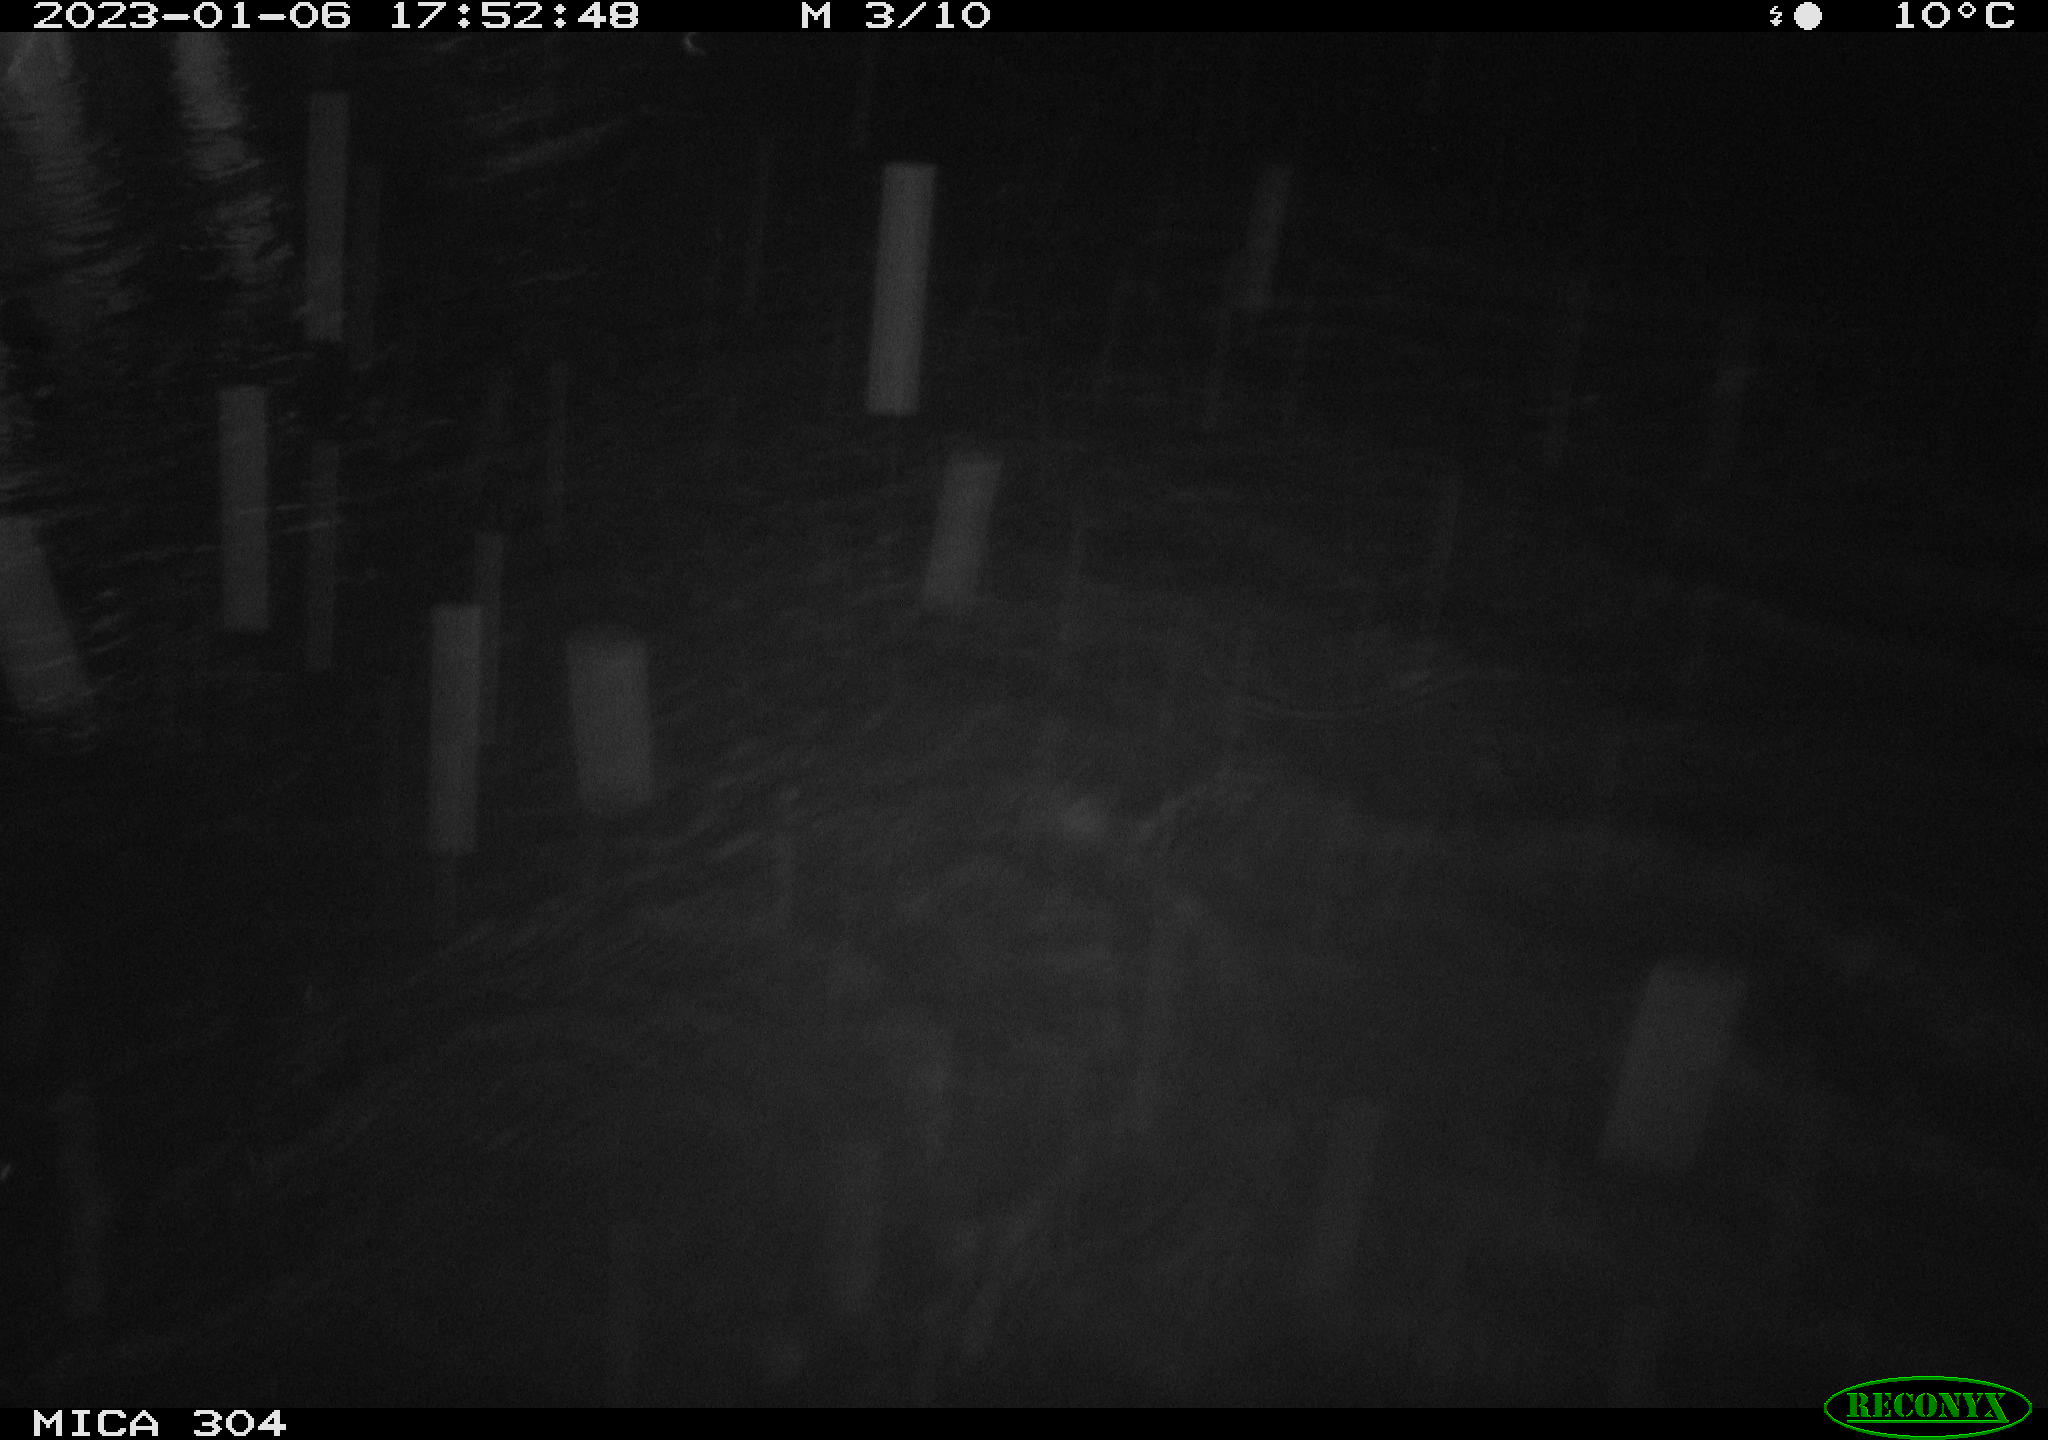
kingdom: Animalia
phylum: Chordata
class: Mammalia
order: Rodentia
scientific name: Rodentia
